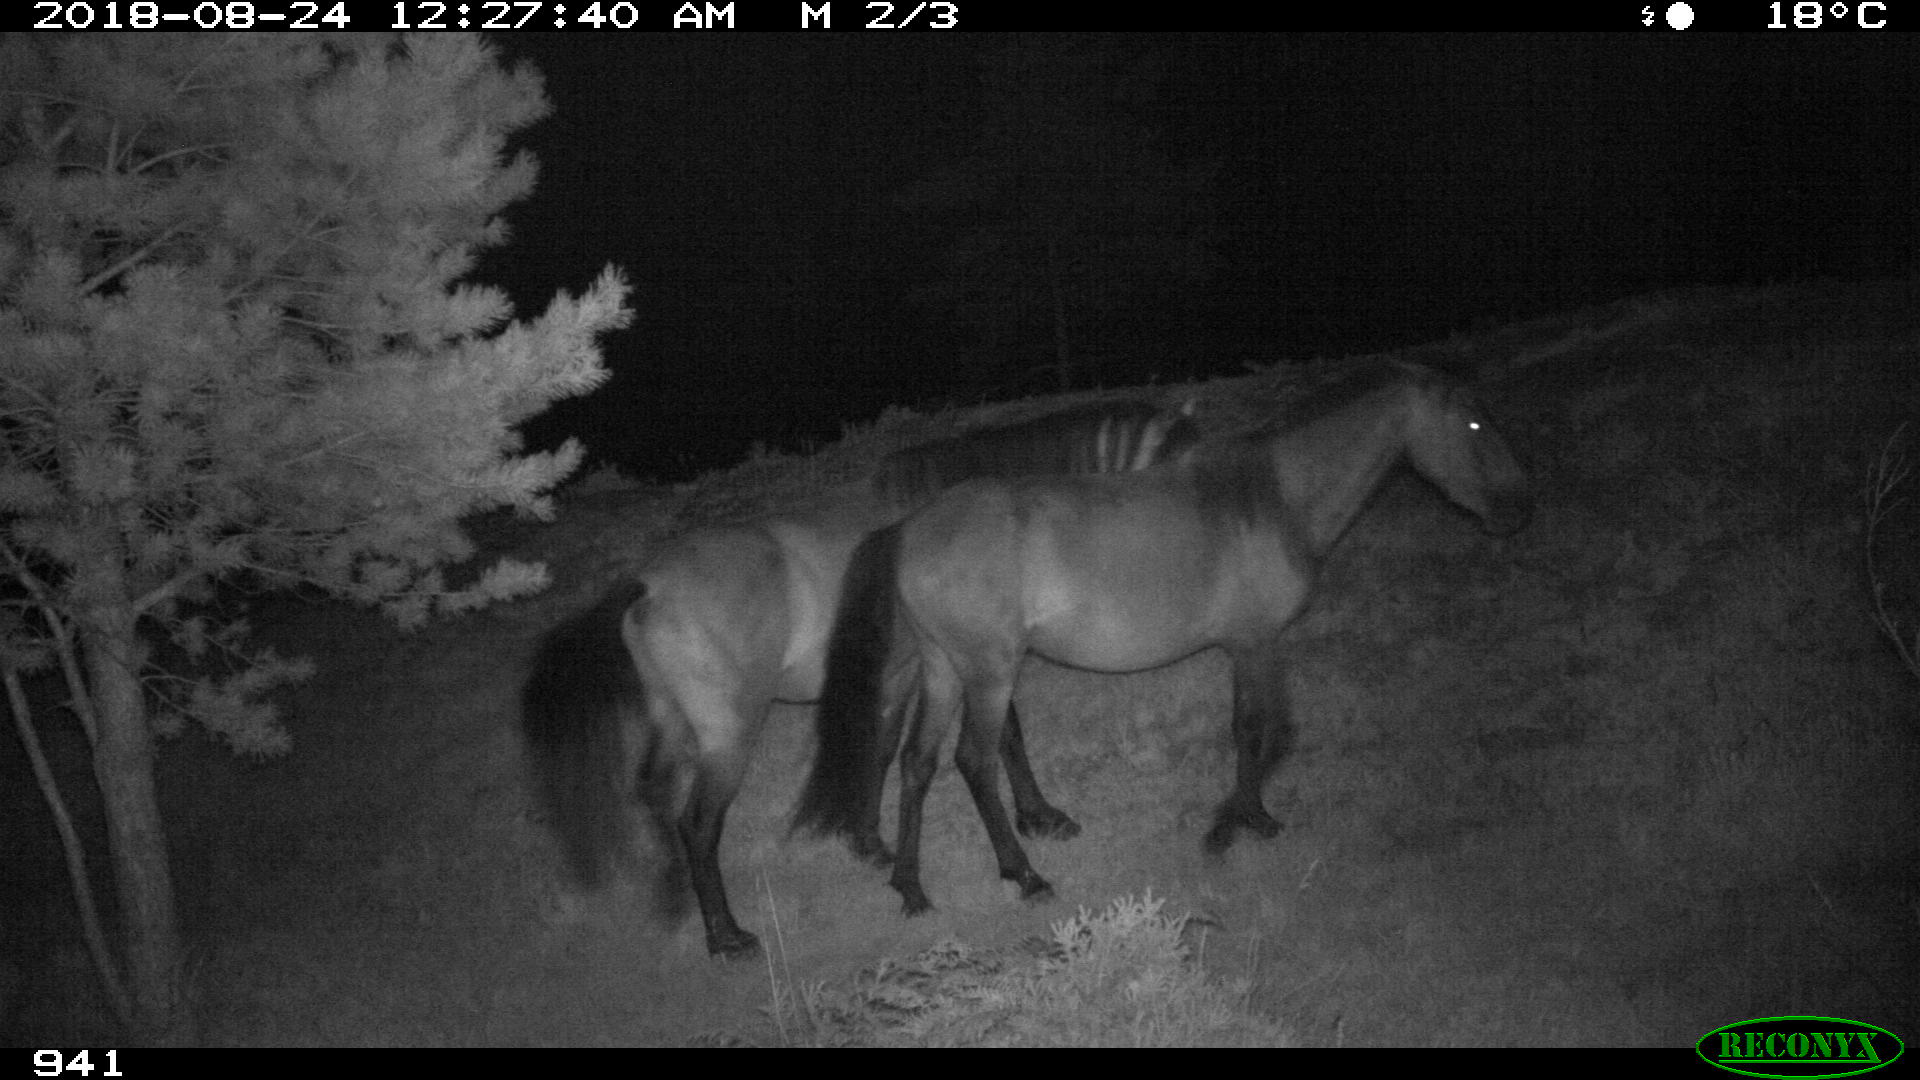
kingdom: Animalia
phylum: Chordata
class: Mammalia
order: Perissodactyla
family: Equidae
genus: Equus
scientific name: Equus caballus
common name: Horse
